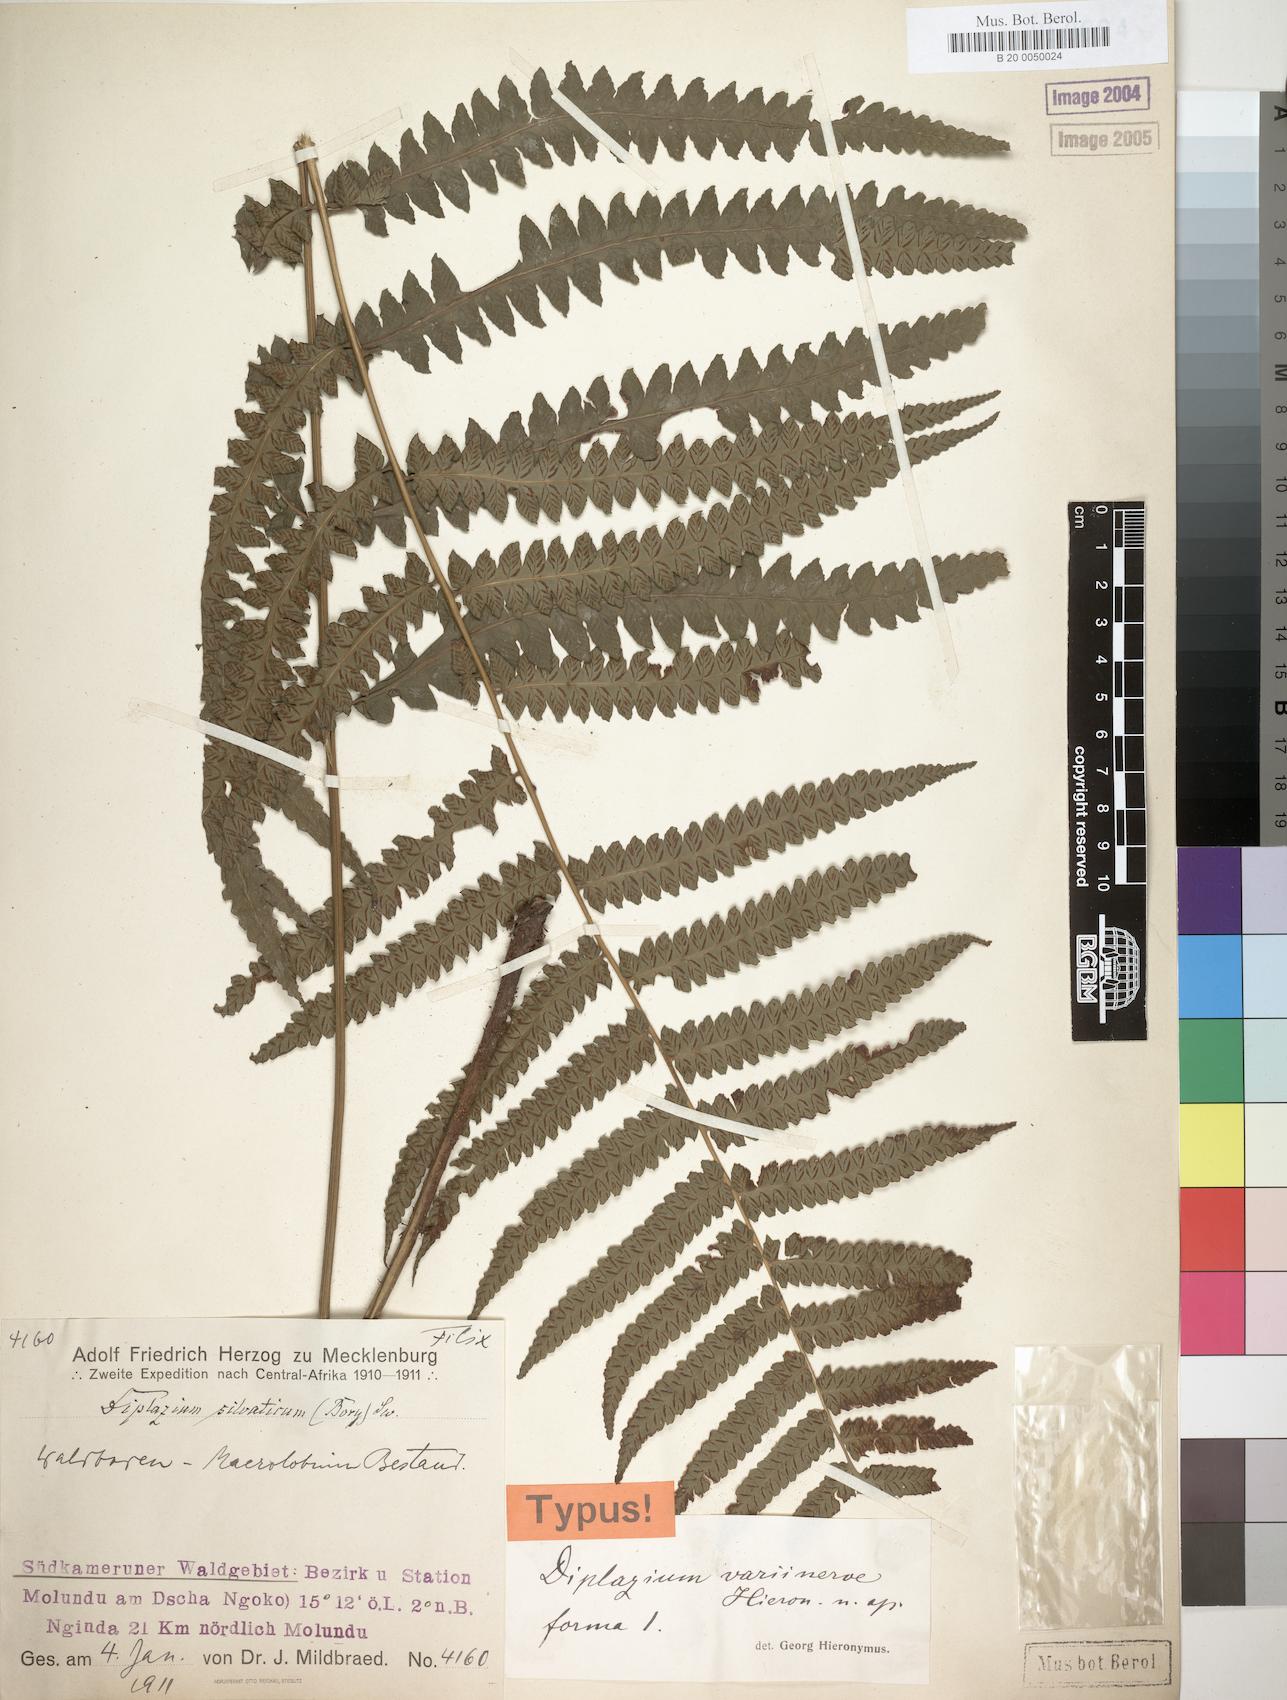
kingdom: Plantae
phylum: Tracheophyta
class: Polypodiopsida
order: Polypodiales
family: Athyriaceae
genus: Diplazium
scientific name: Diplazium welwitschii
